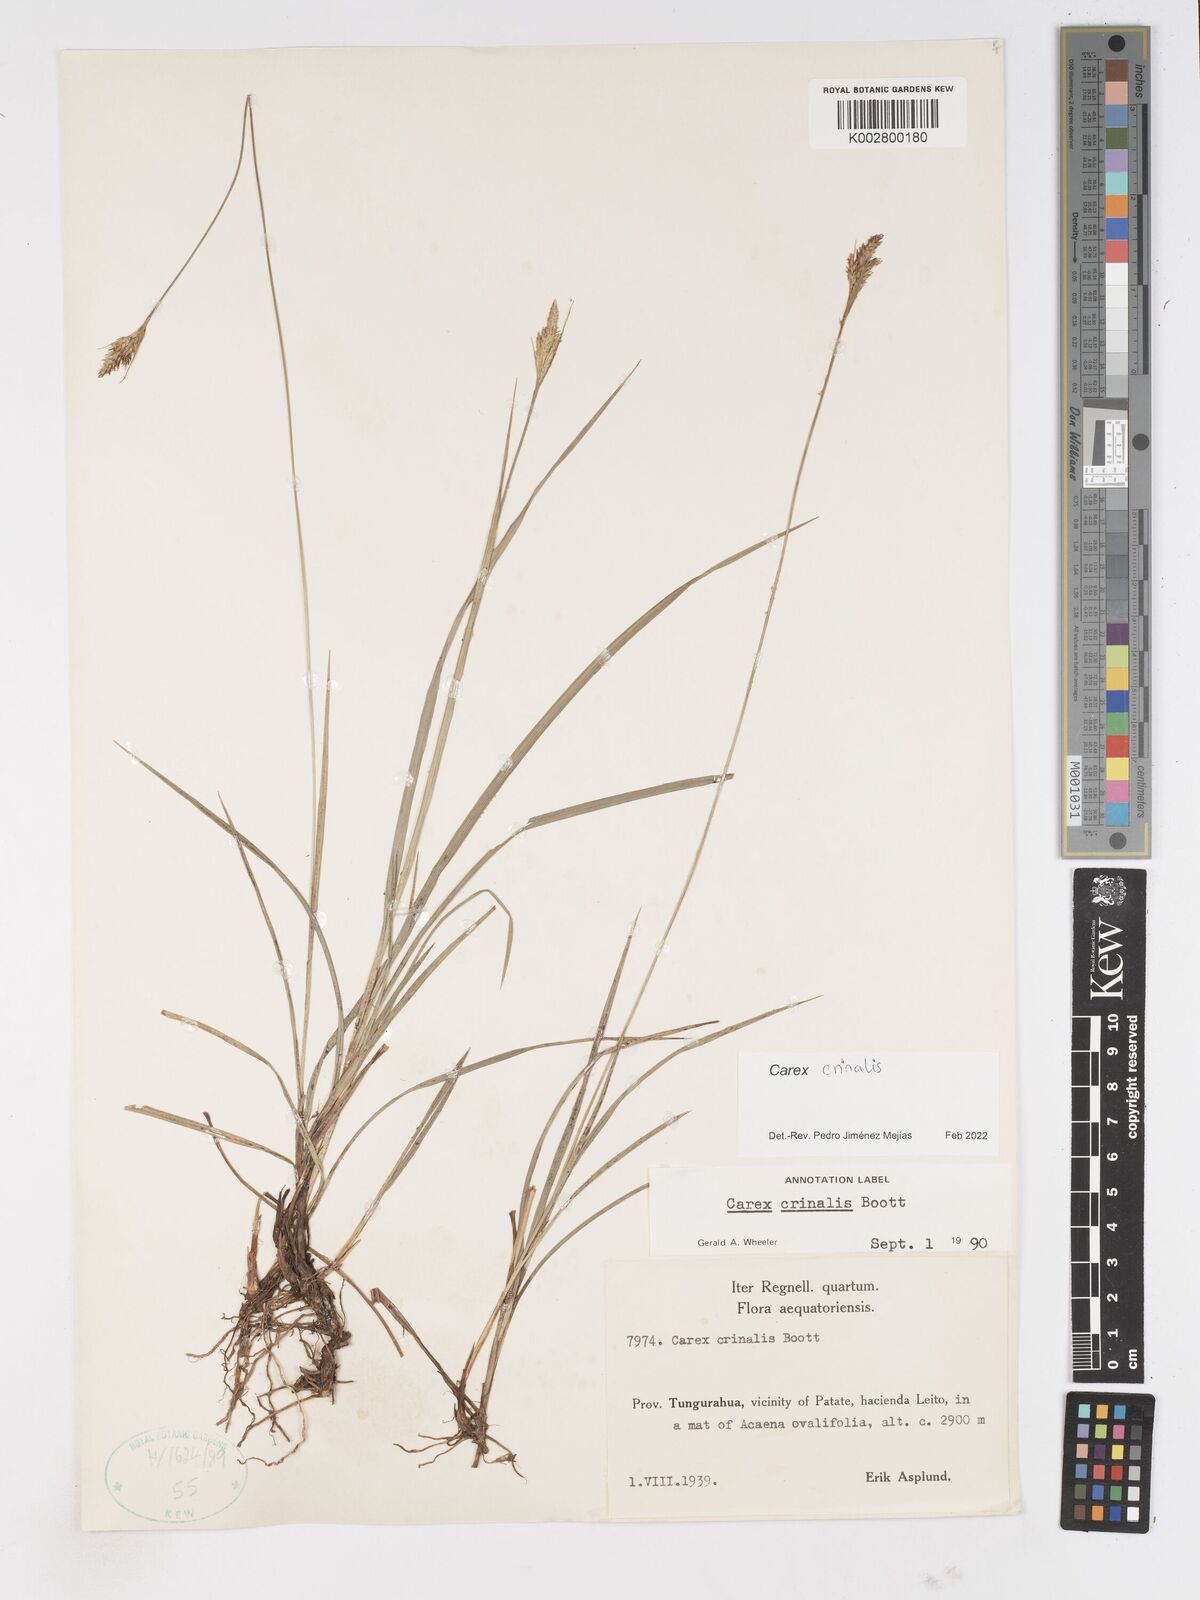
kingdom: Plantae
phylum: Tracheophyta
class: Liliopsida
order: Poales
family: Cyperaceae
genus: Carex
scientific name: Carex crinalis
